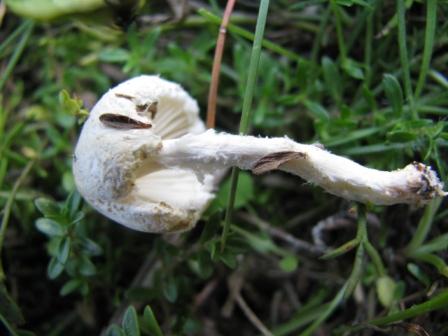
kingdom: Fungi
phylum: Basidiomycota
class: Agaricomycetes
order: Agaricales
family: Agaricaceae
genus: Lepiota
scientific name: Lepiota erminea
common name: hvid parasolhat
